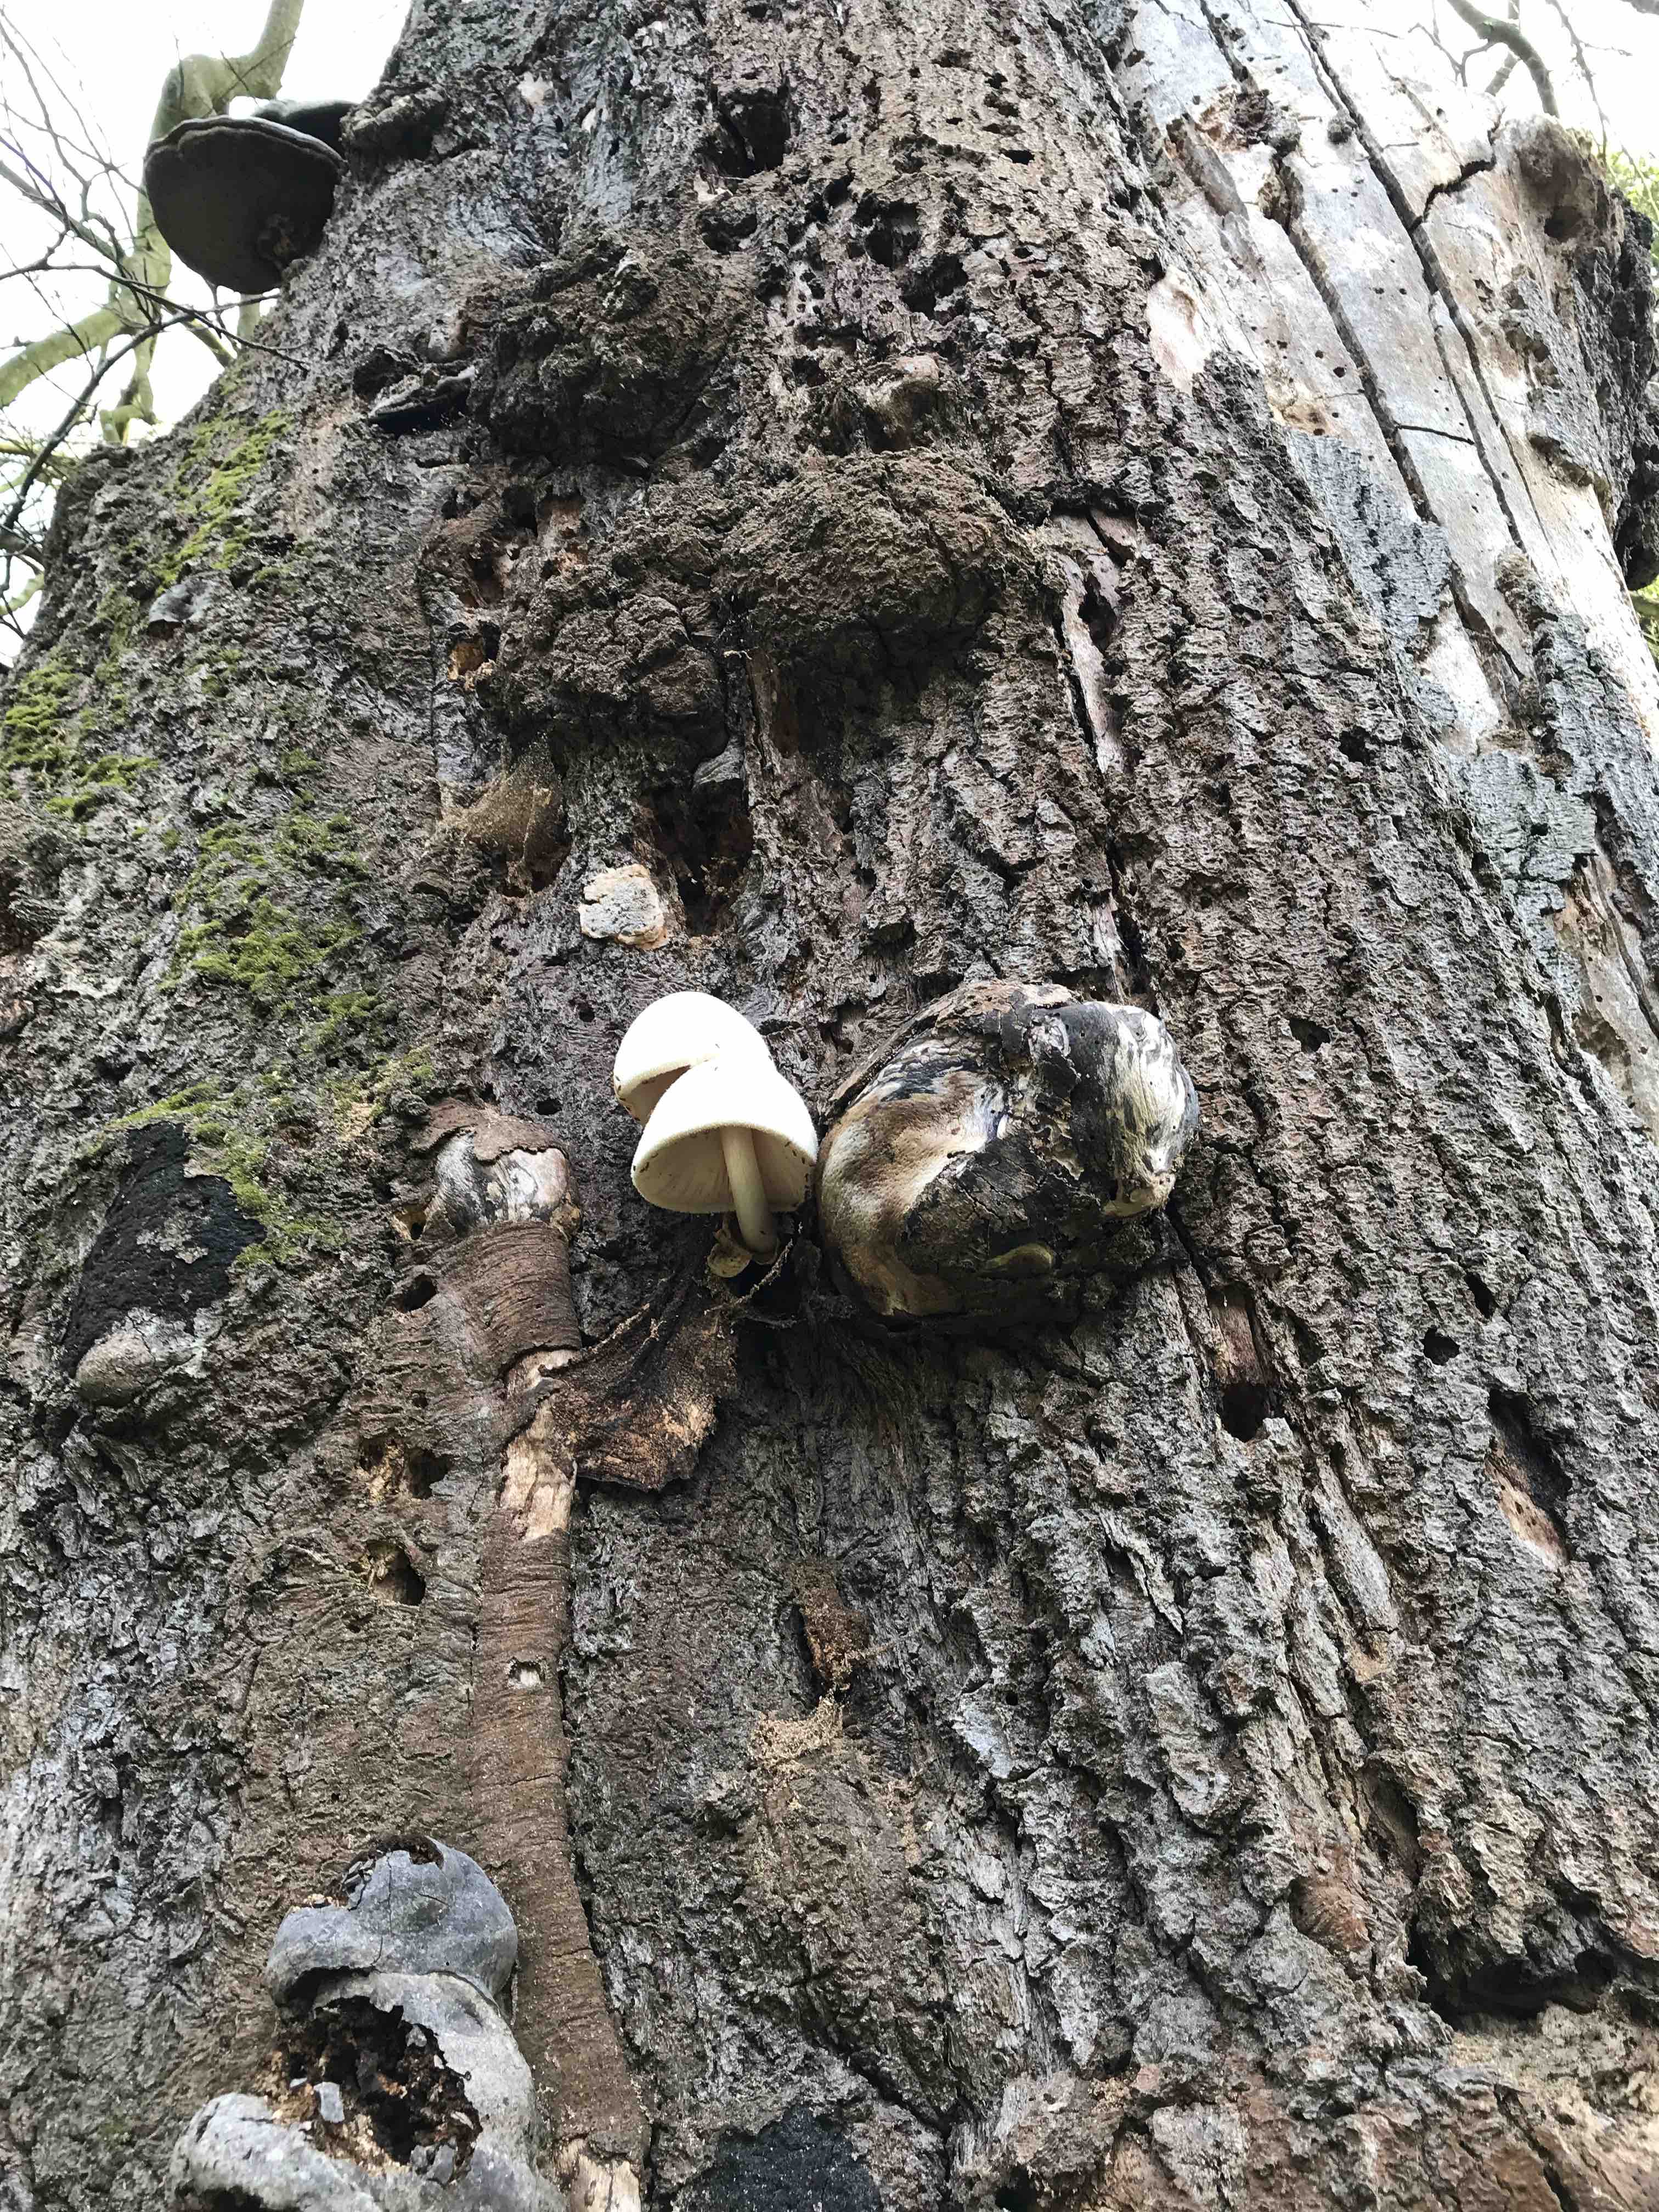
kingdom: Fungi
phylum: Basidiomycota
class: Agaricomycetes
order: Agaricales
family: Pluteaceae
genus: Volvariella
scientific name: Volvariella bombycina
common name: silkehåret posesvamp
